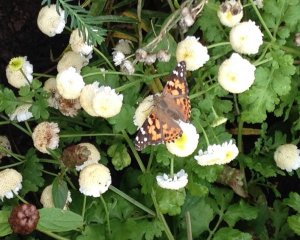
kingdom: Animalia
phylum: Arthropoda
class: Insecta
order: Lepidoptera
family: Nymphalidae
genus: Vanessa
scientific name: Vanessa cardui
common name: Painted Lady
